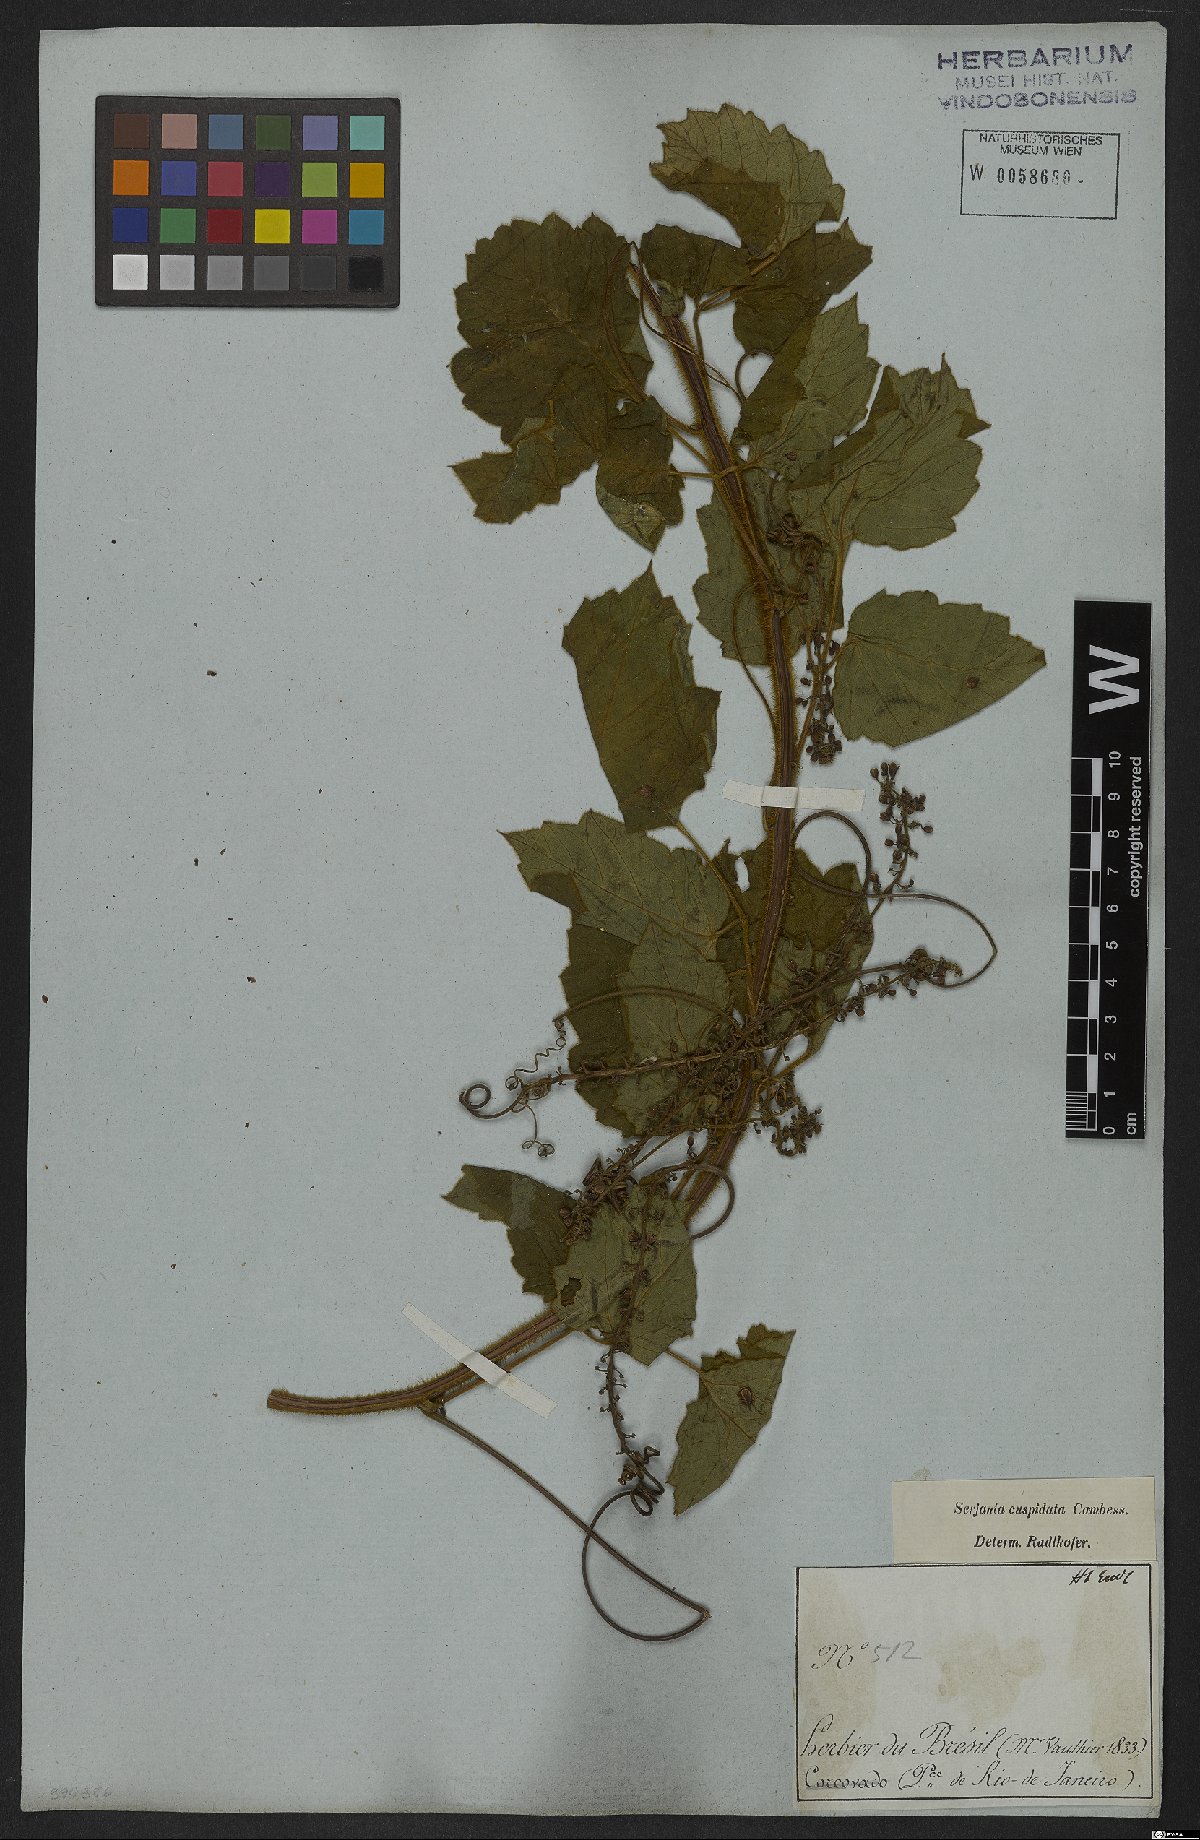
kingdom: Plantae
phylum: Tracheophyta
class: Magnoliopsida
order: Sapindales
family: Sapindaceae
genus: Serjania
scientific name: Serjania ferruginea
